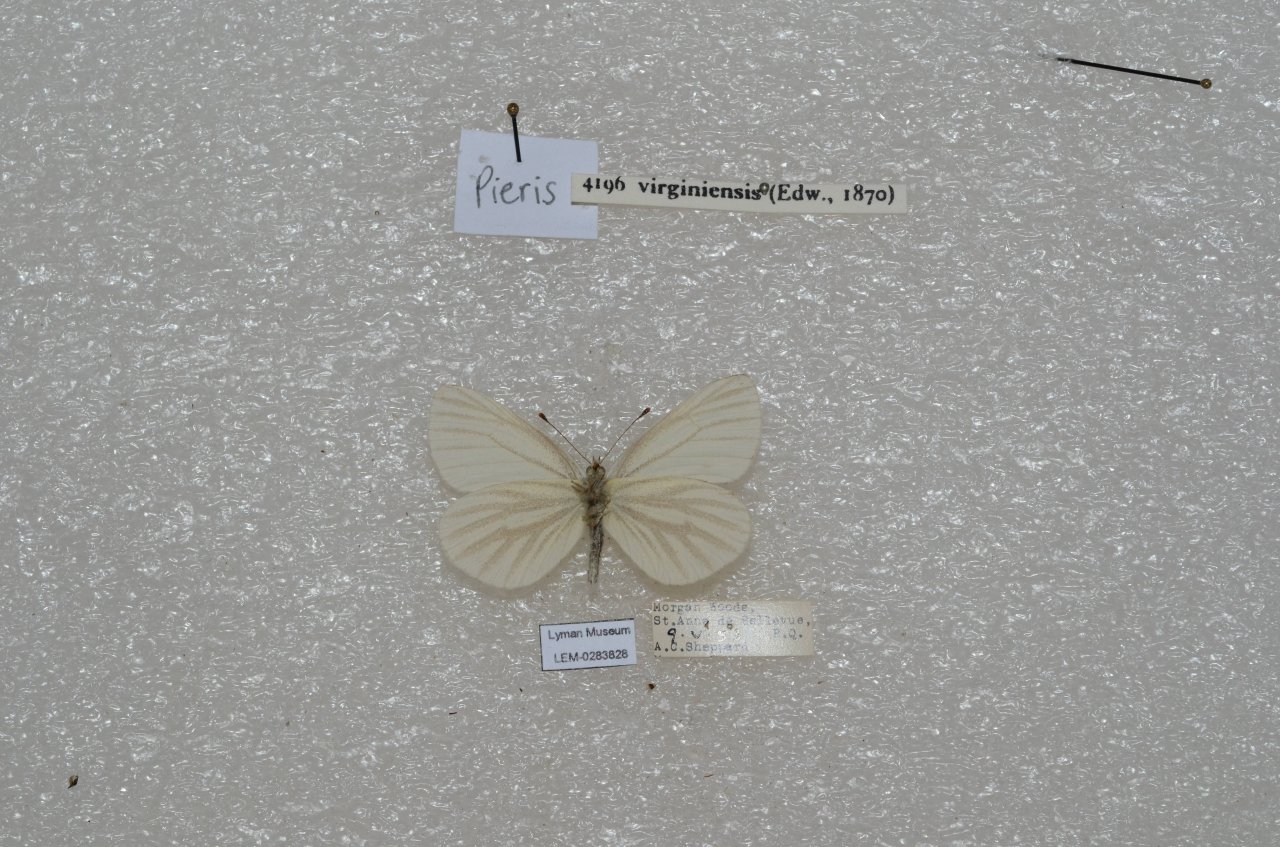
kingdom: Animalia
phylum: Arthropoda
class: Insecta
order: Lepidoptera
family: Pieridae
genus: Pieris
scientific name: Pieris virginiensis
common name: West Virginia White
